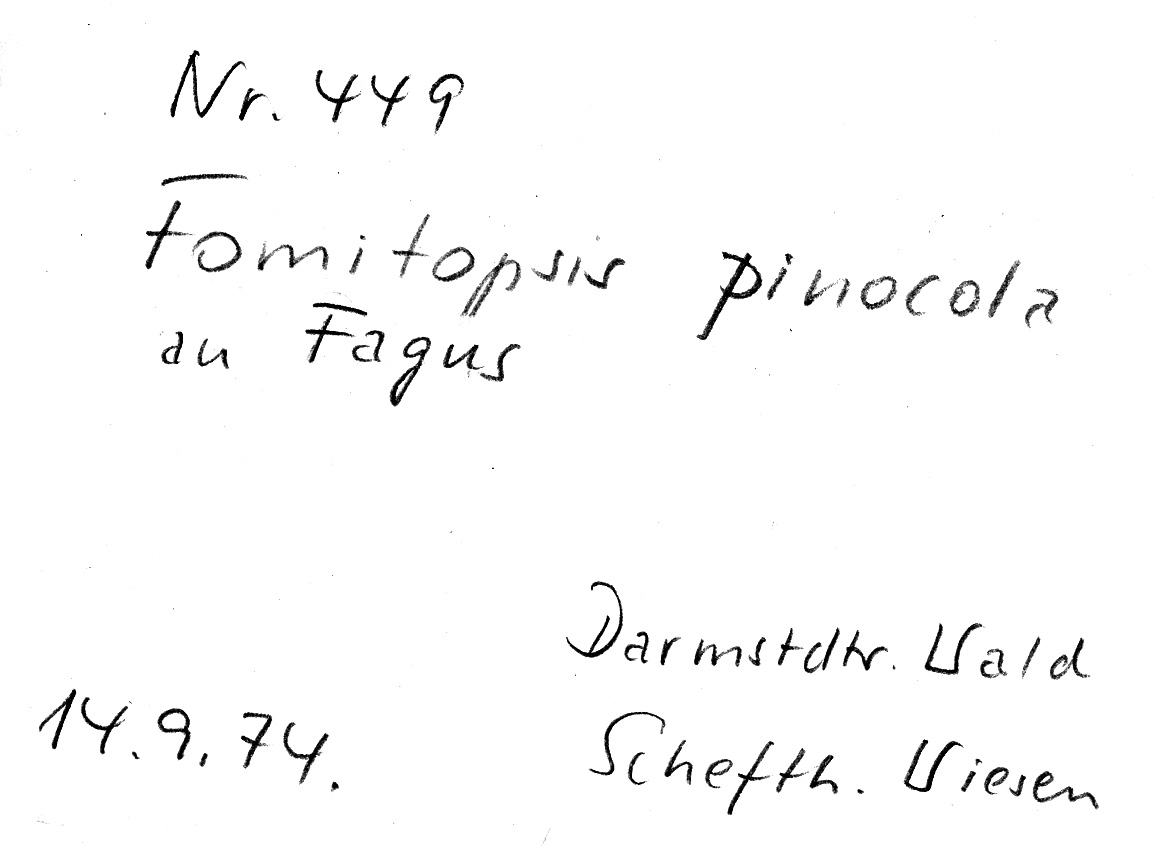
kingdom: Plantae
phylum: Tracheophyta
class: Magnoliopsida
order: Fagales
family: Fagaceae
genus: Fagus
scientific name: Fagus sylvatica
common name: Beech
